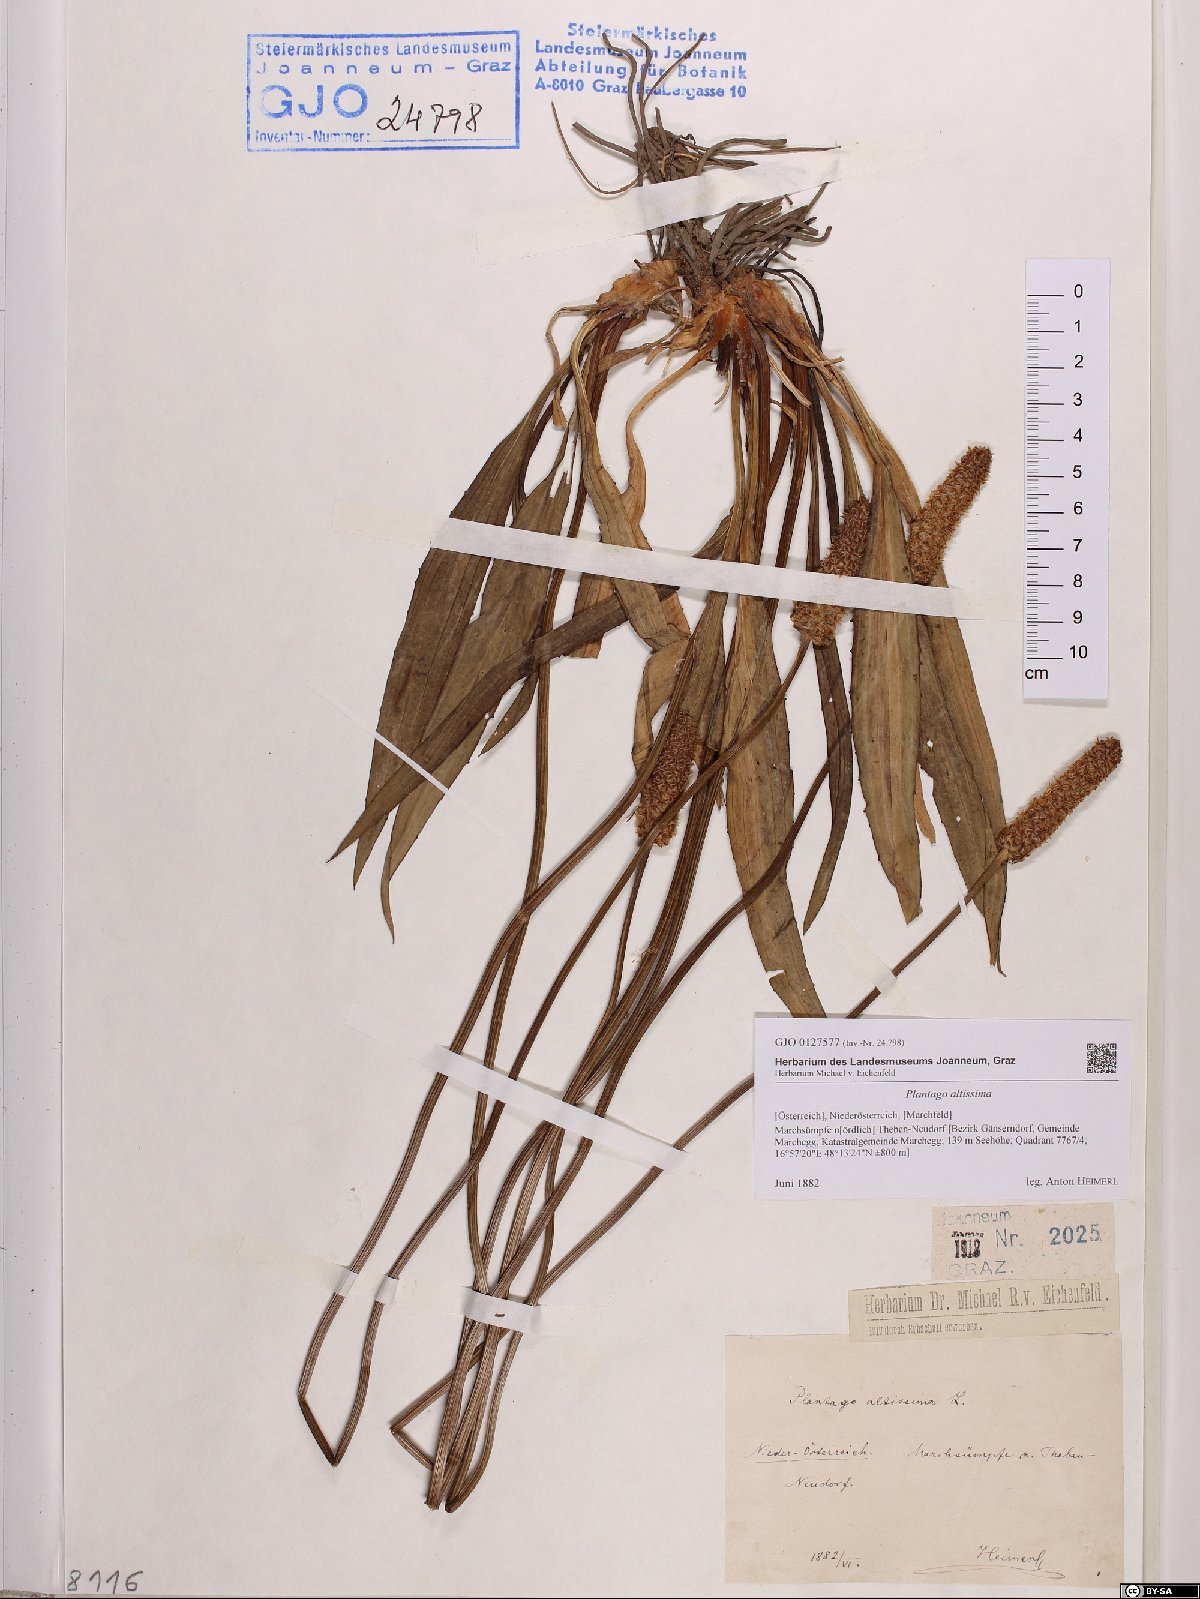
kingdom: Plantae
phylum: Tracheophyta
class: Magnoliopsida
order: Lamiales
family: Plantaginaceae
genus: Plantago
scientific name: Plantago altissima
